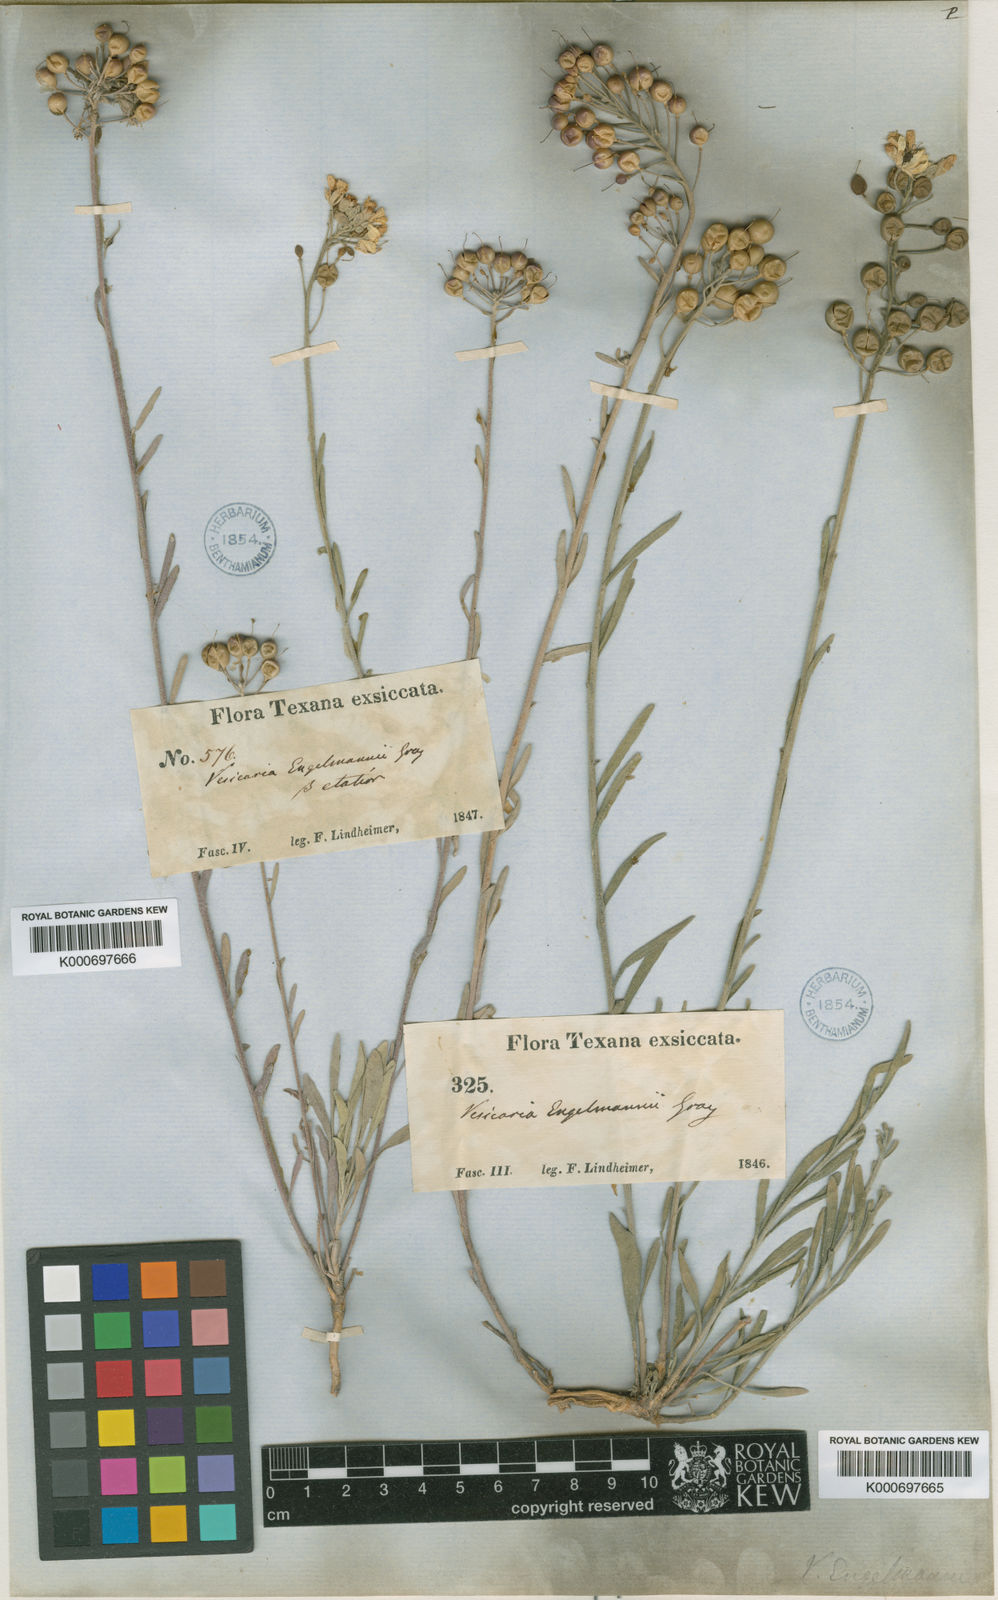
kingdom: Plantae
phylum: Tracheophyta
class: Magnoliopsida
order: Brassicales
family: Brassicaceae
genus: Physaria
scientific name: Physaria engelmannii
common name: Engelmann's bladderpod
